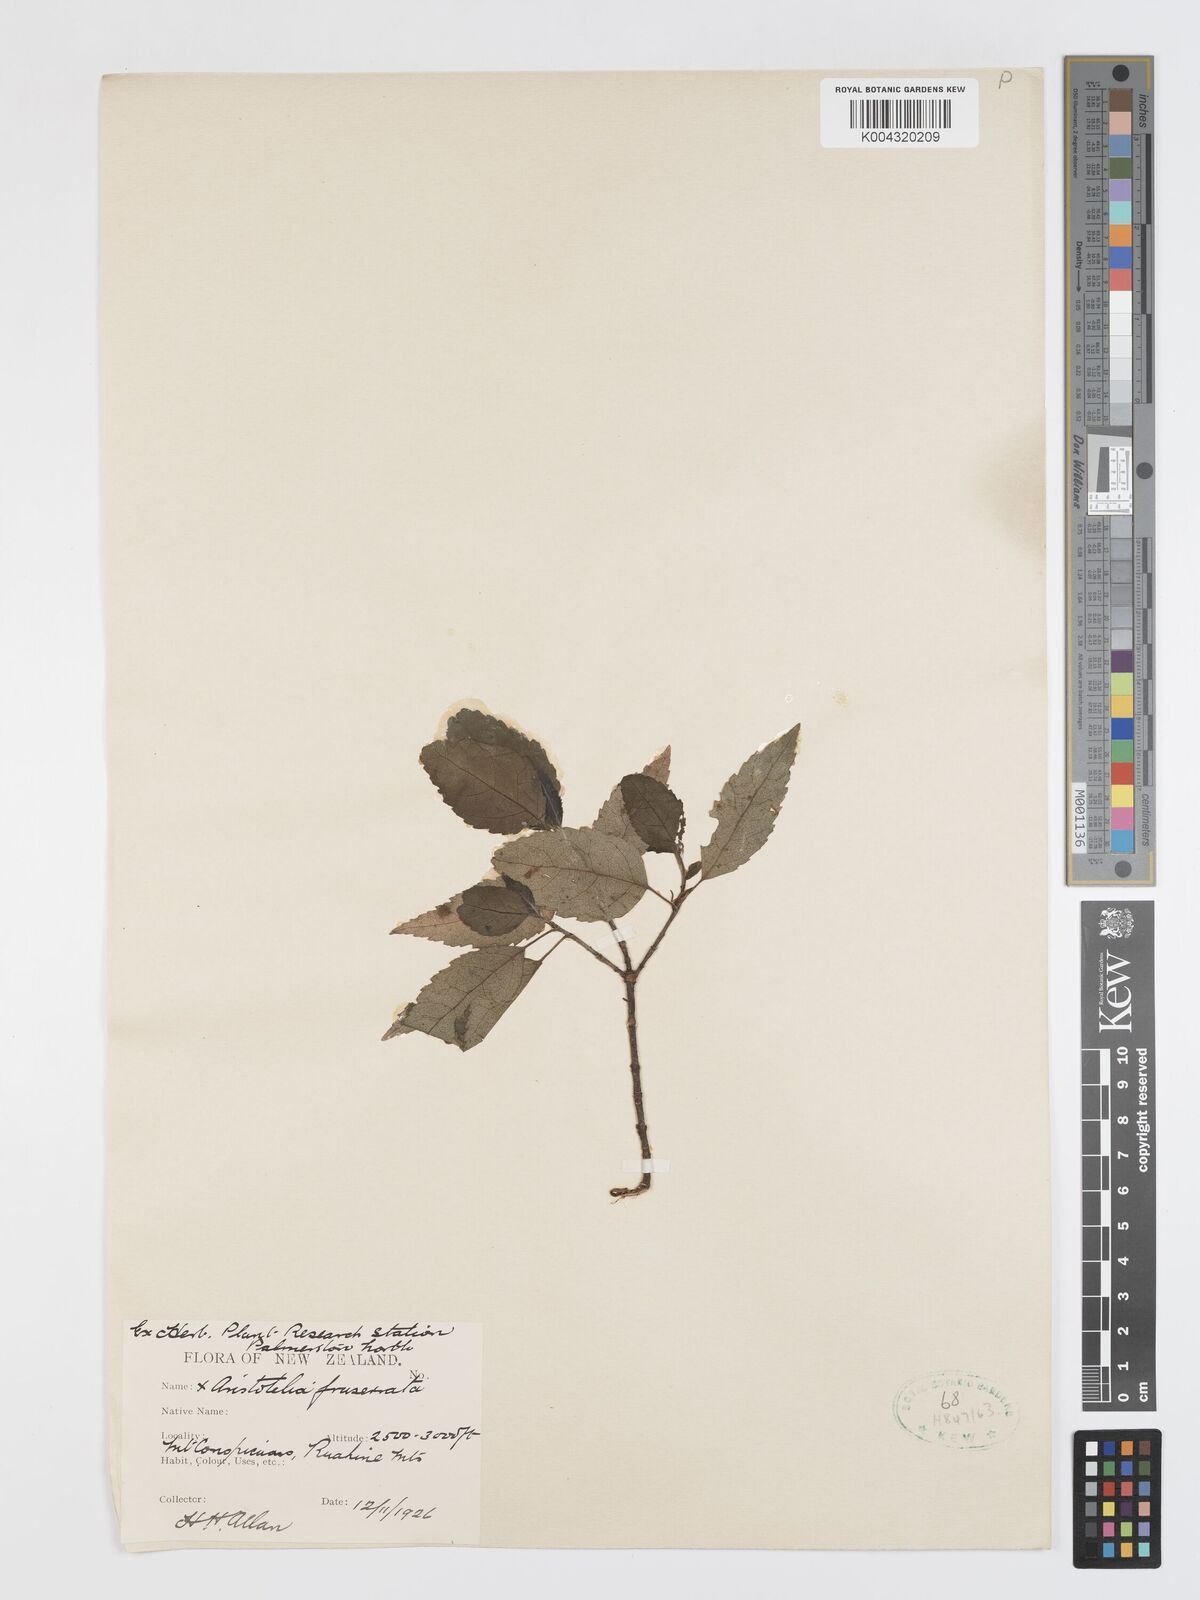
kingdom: Plantae
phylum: Tracheophyta
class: Magnoliopsida
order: Oxalidales
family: Elaeocarpaceae
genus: Aristotelia
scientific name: Aristotelia fruticosa
